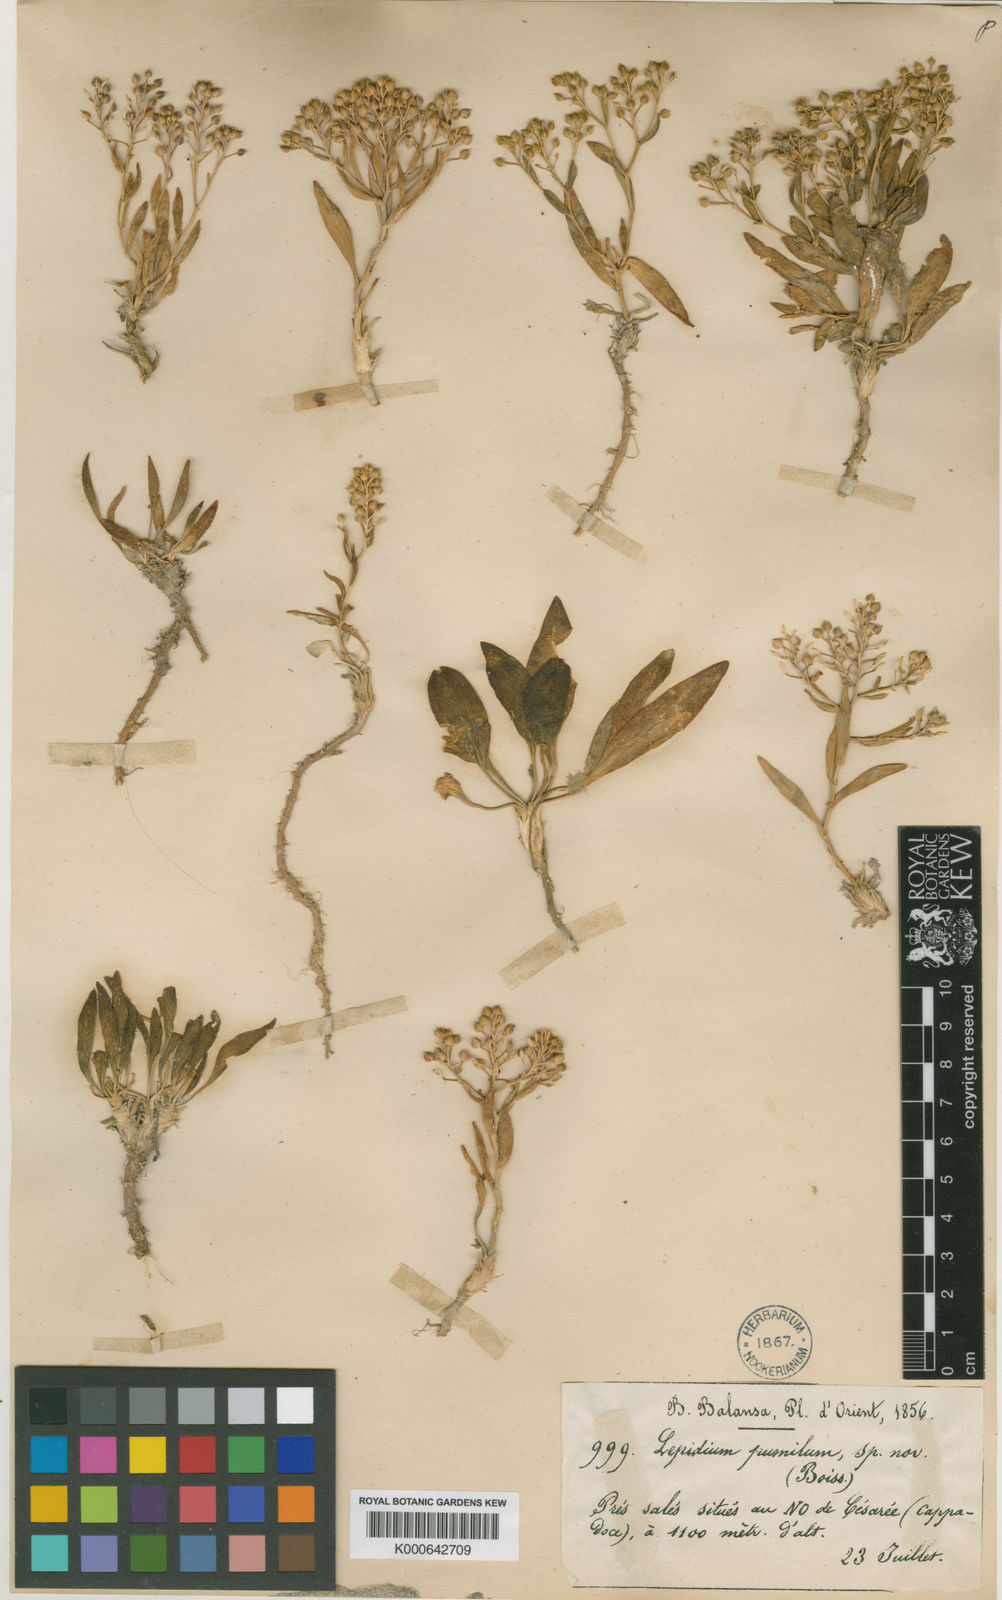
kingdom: Plantae
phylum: Tracheophyta
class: Magnoliopsida
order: Brassicales
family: Brassicaceae
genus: Lepidium
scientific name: Lepidium cartilagineum
